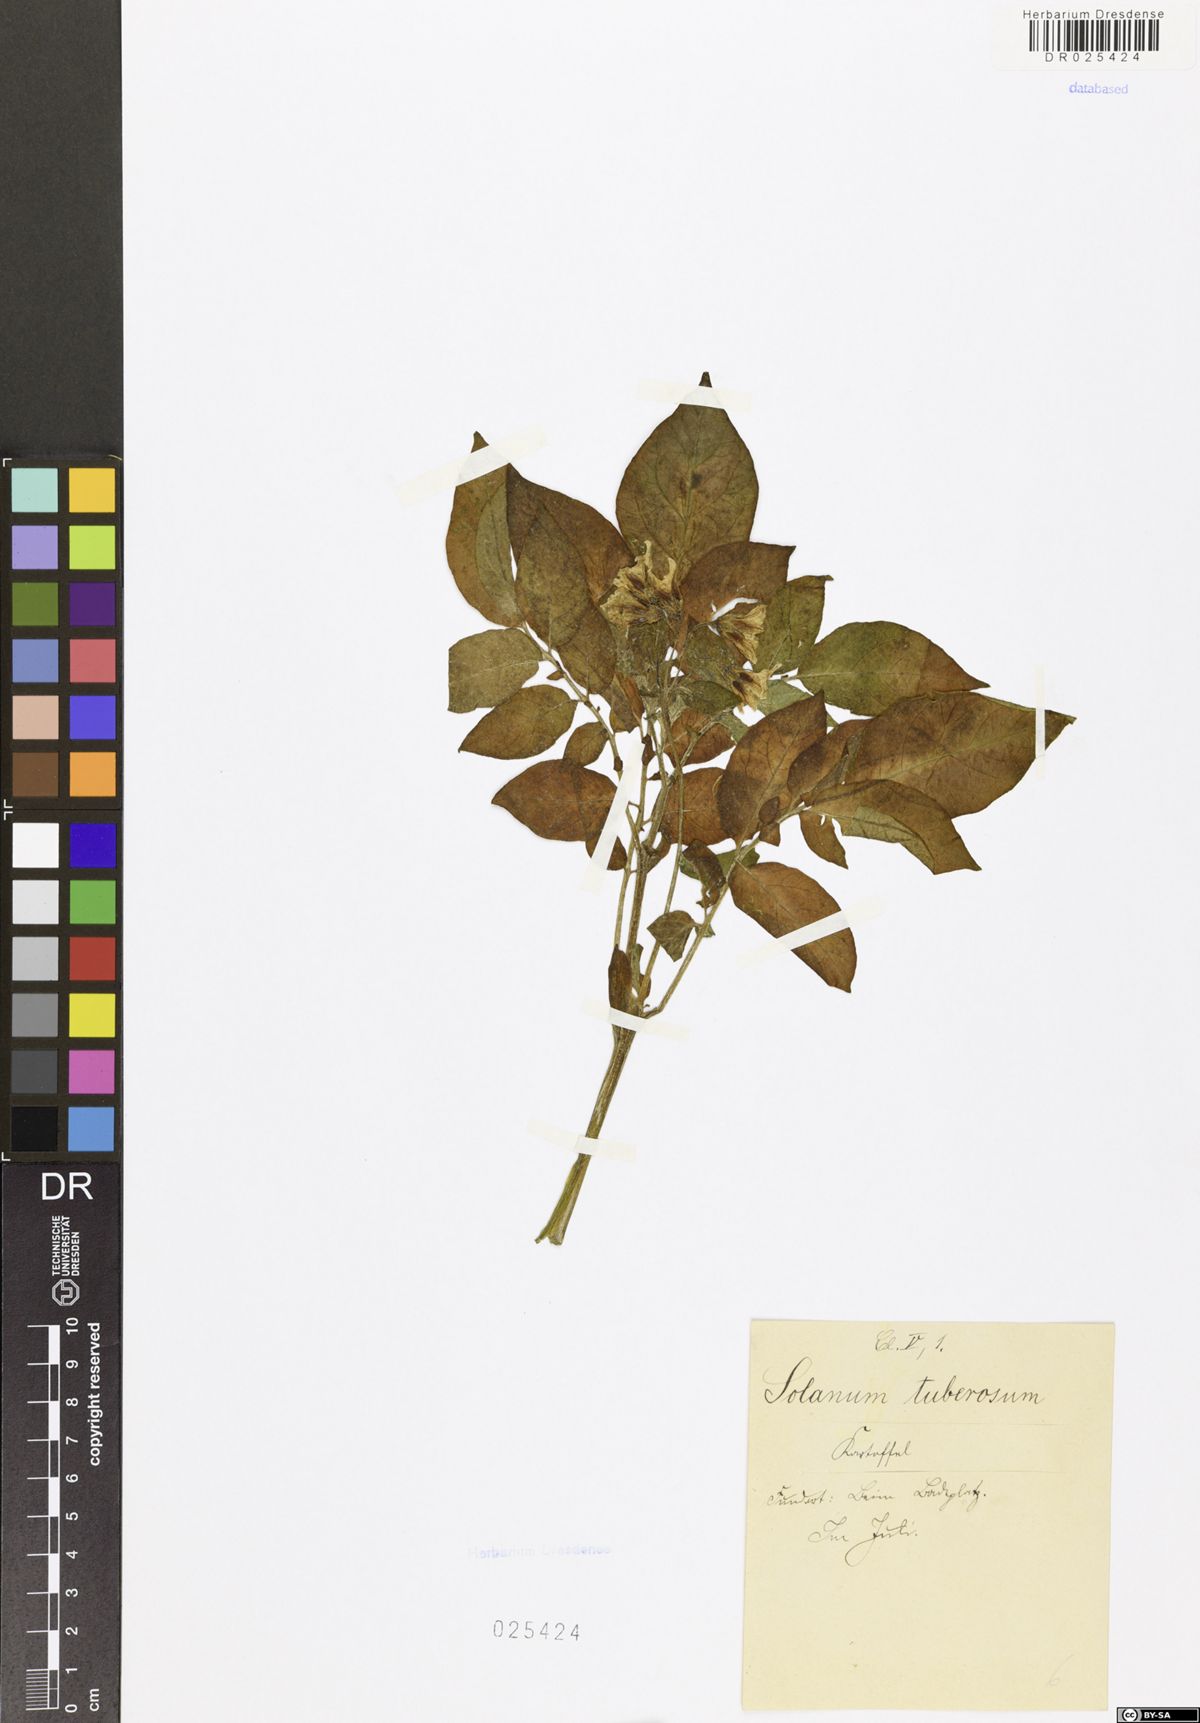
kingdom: Plantae
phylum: Tracheophyta
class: Magnoliopsida
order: Solanales
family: Solanaceae
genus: Solanum
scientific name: Solanum tuberosum
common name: Potato
